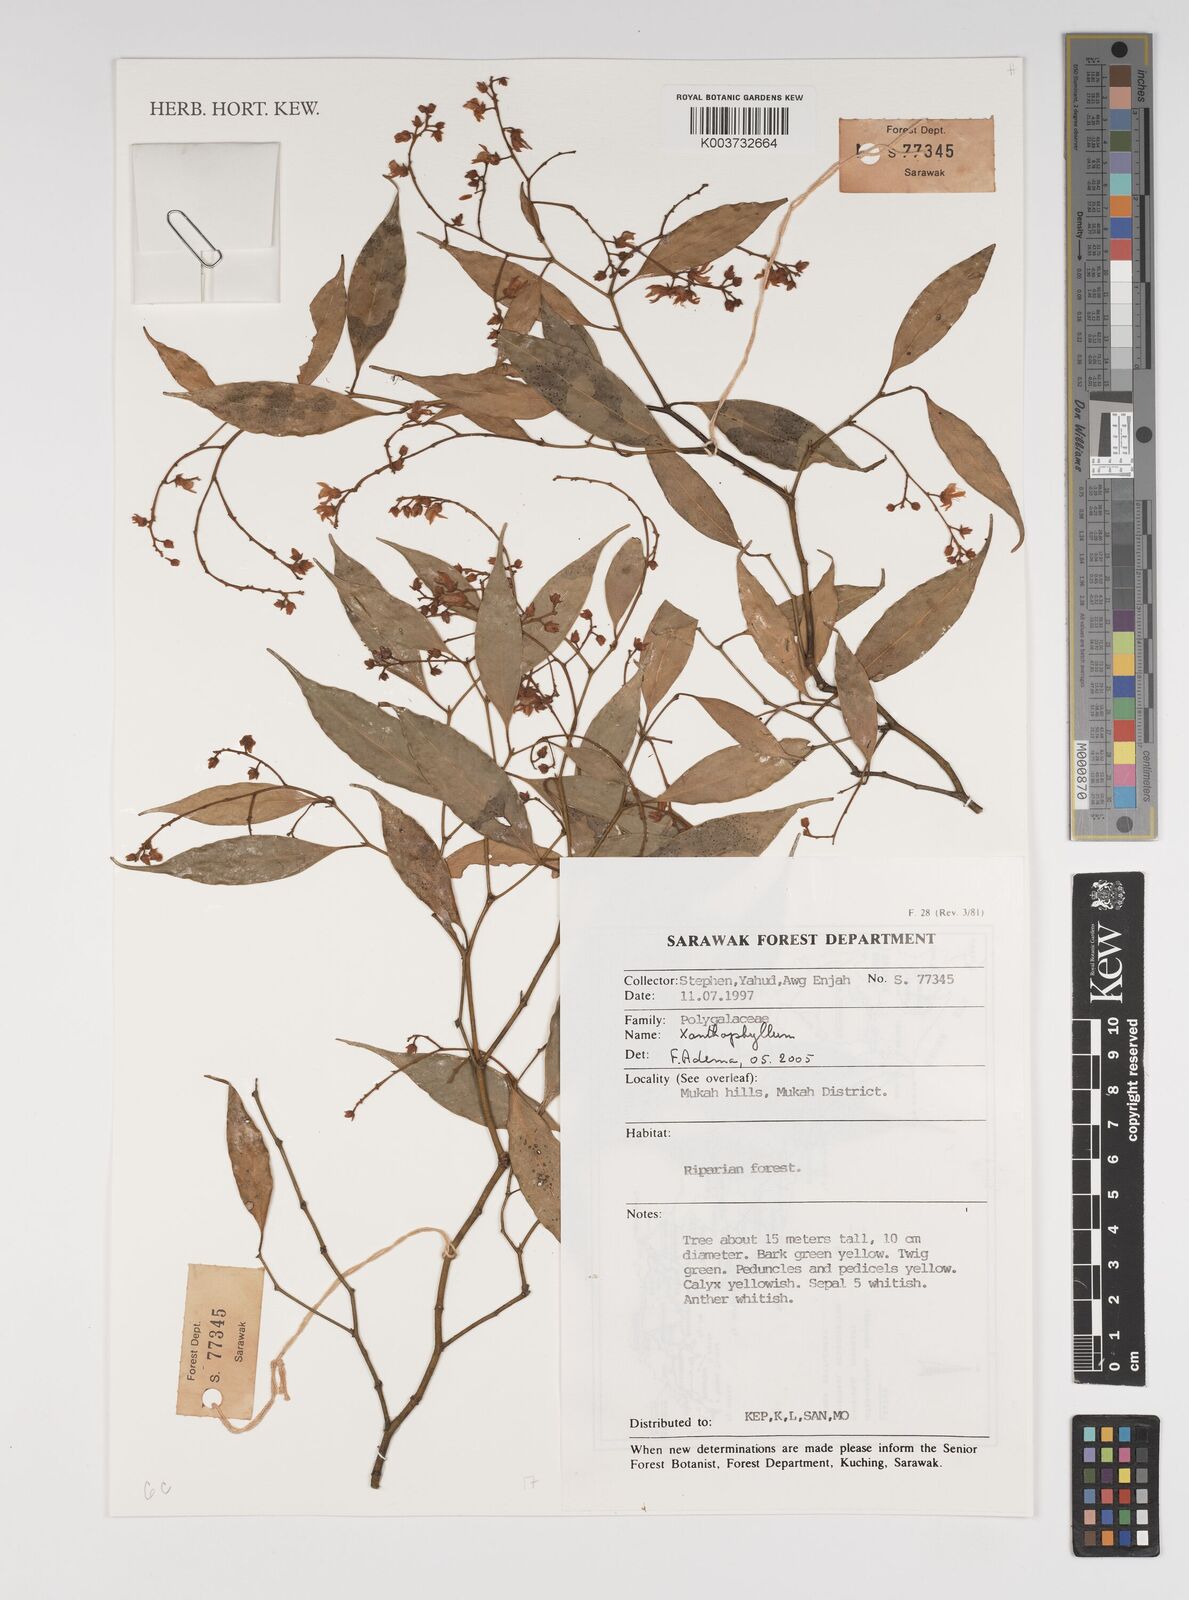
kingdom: Plantae
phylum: Tracheophyta
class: Magnoliopsida
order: Fabales
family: Polygalaceae
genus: Xanthophyllum
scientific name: Xanthophyllum
